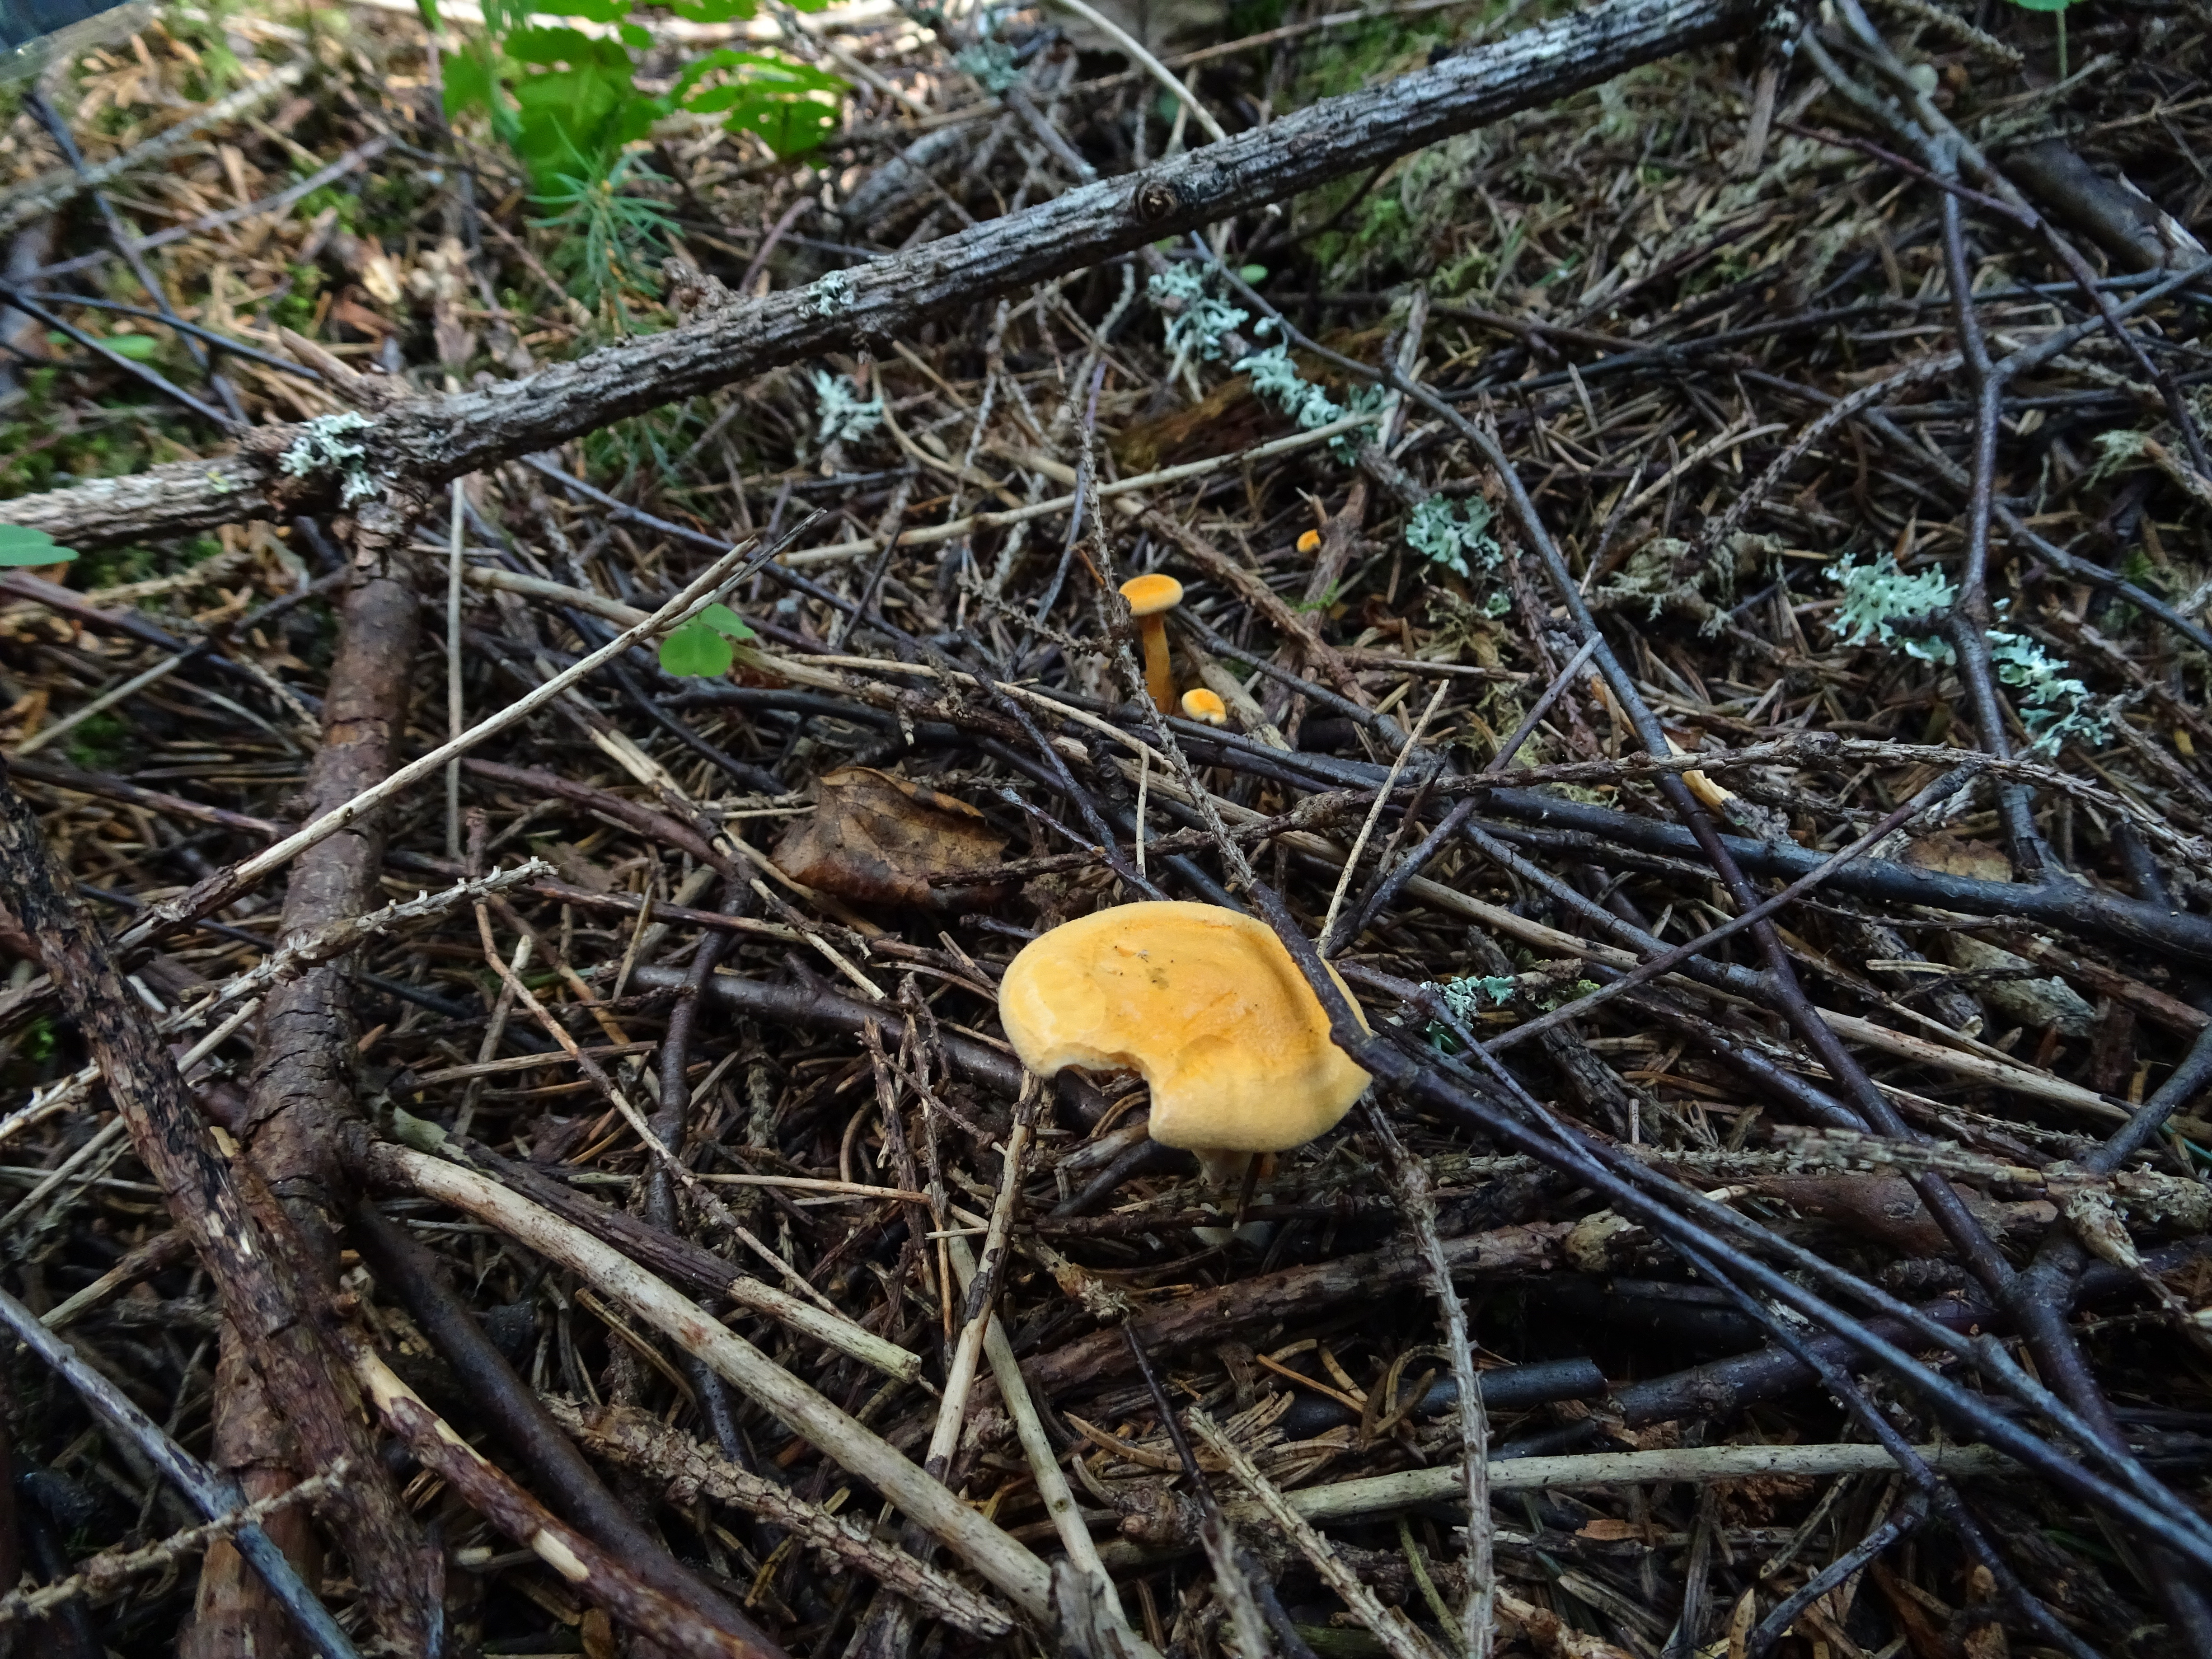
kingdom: Fungi
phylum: Basidiomycota
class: Agaricomycetes
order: Boletales
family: Hygrophoropsidaceae
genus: Hygrophoropsis
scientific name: Hygrophoropsis aurantiaca
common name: False chanterelle
